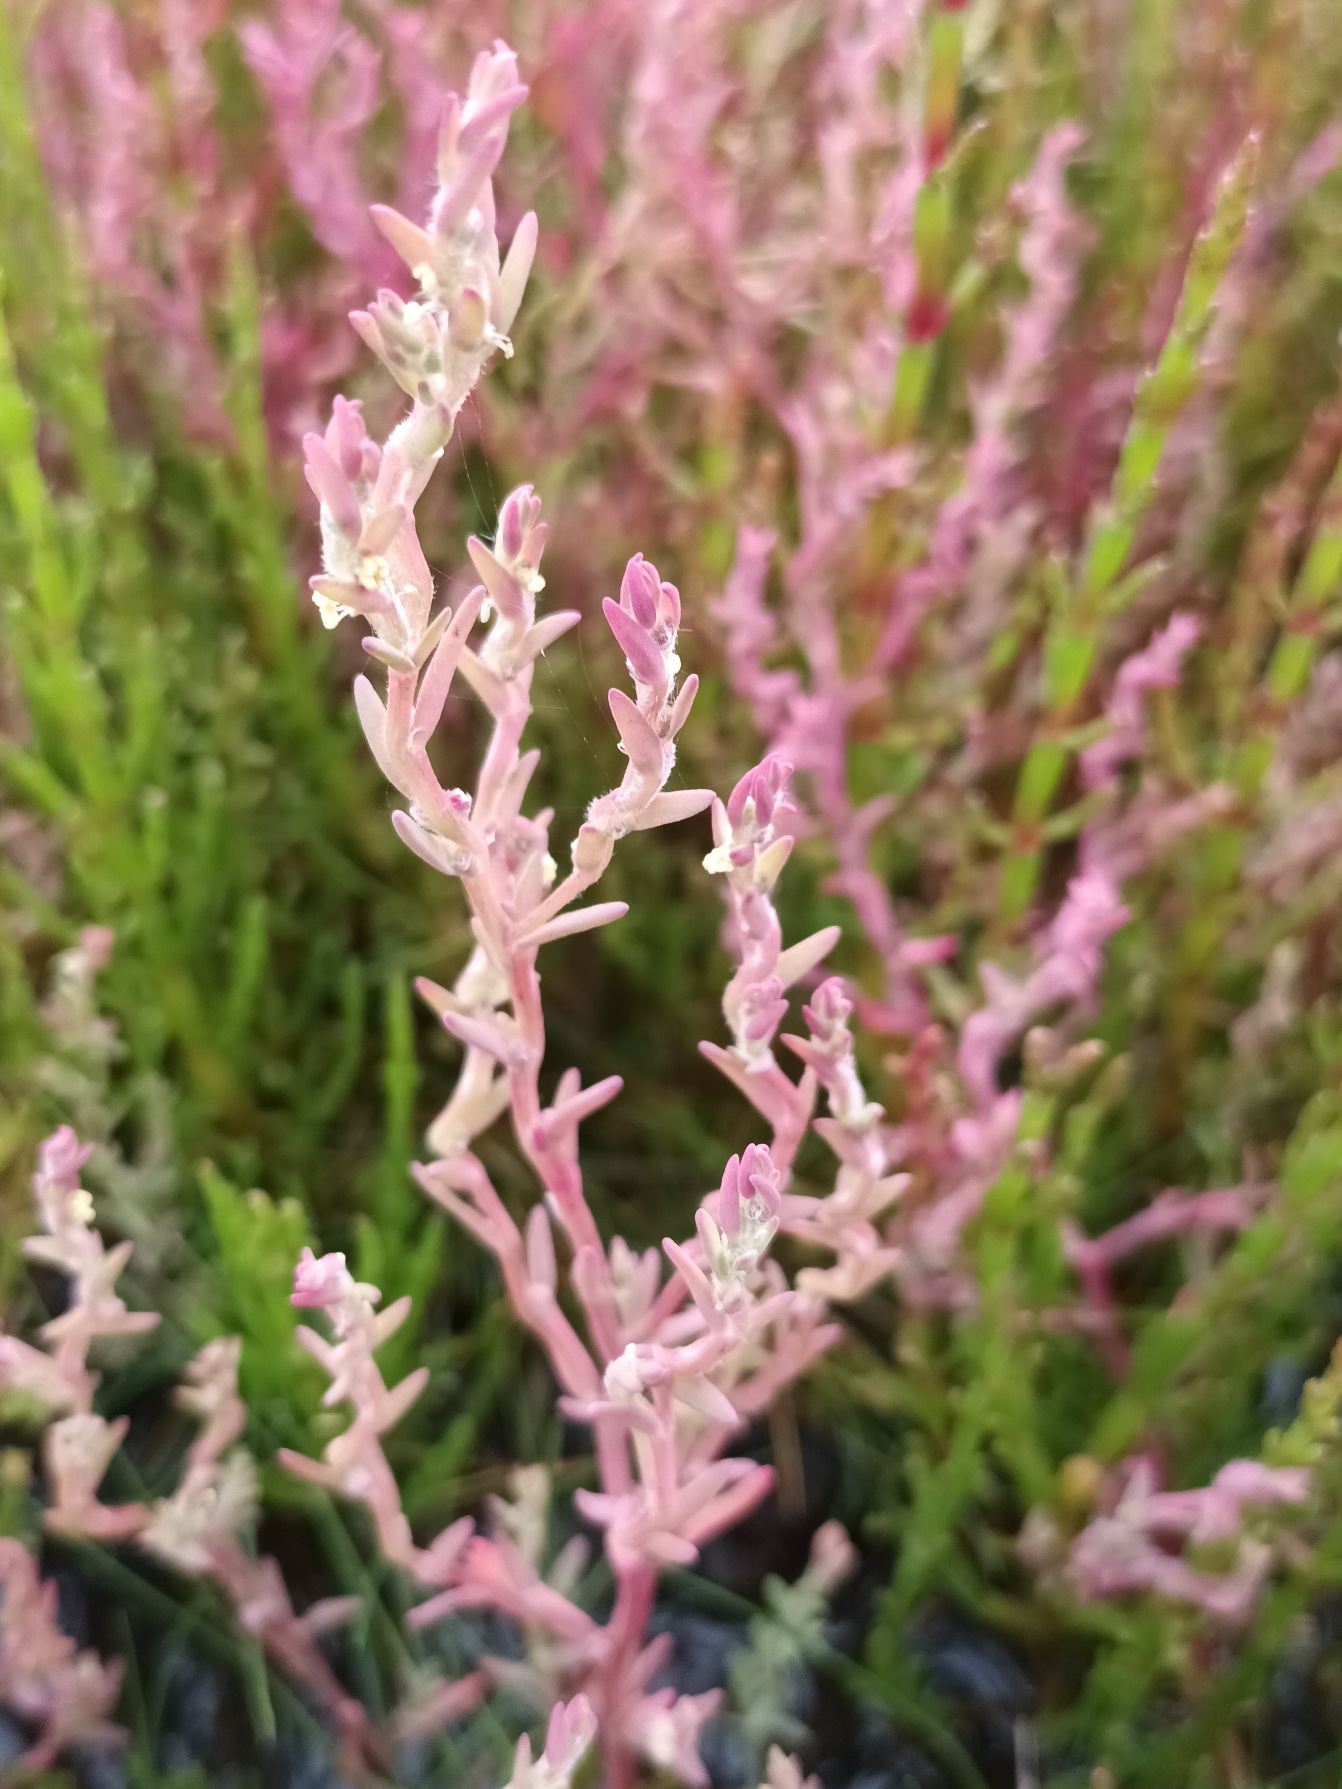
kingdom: Plantae
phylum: Tracheophyta
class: Magnoliopsida
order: Caryophyllales
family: Amaranthaceae
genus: Spirobassia
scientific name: Spirobassia hirsuta
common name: Tangurt
